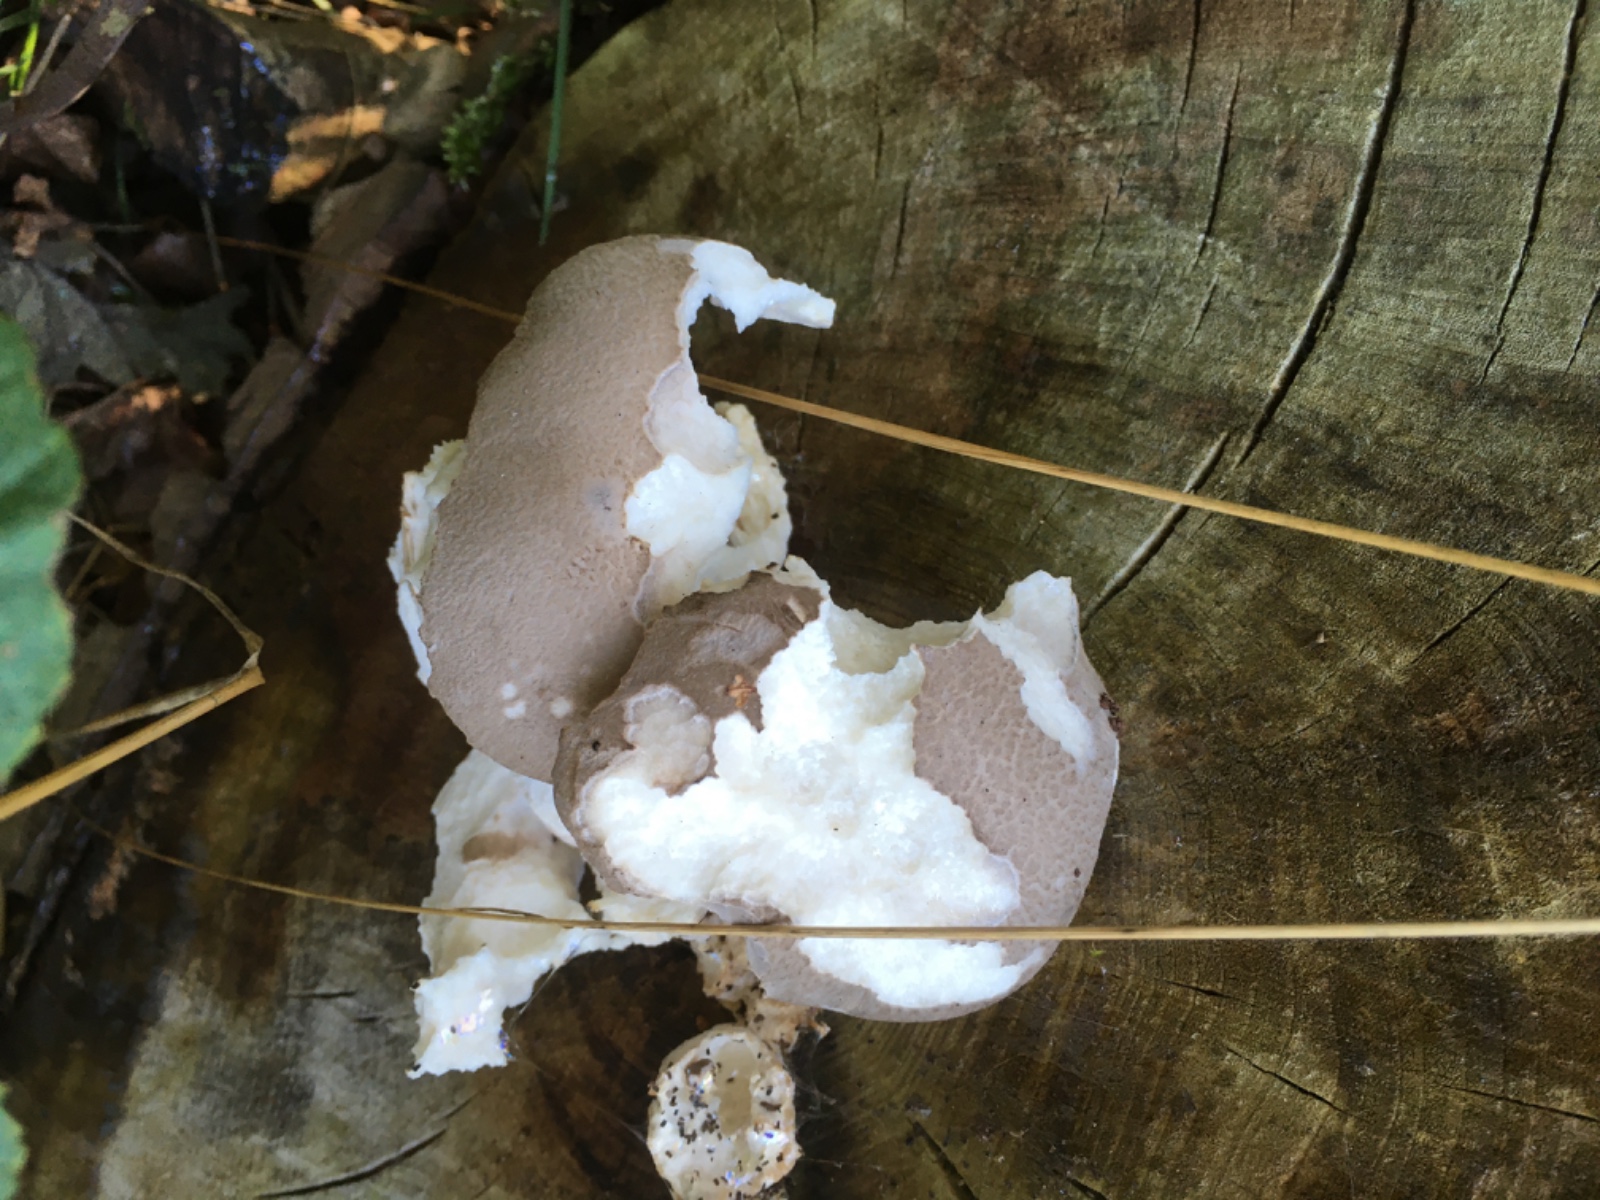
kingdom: Fungi
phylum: Basidiomycota
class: Agaricomycetes
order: Agaricales
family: Pleurotaceae
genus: Pleurotus
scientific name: Pleurotus dryinus
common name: korkagtig østershat
